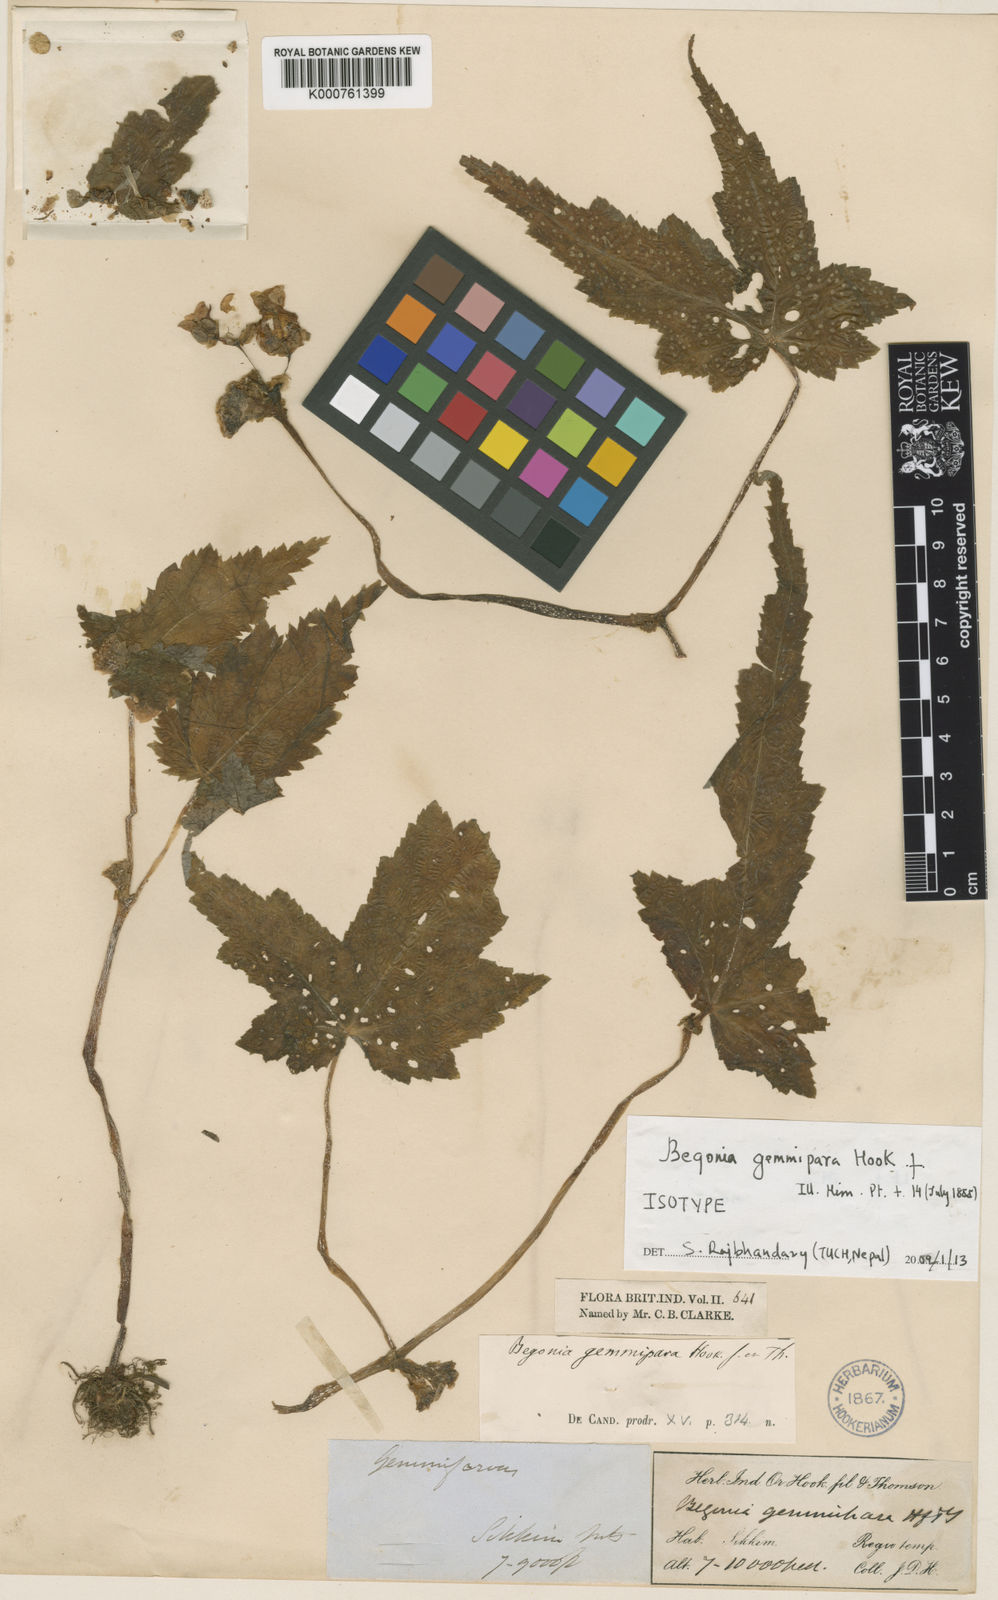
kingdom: Plantae
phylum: Tracheophyta
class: Magnoliopsida
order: Cucurbitales
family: Begoniaceae
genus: Begonia
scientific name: Begonia gemmipara
